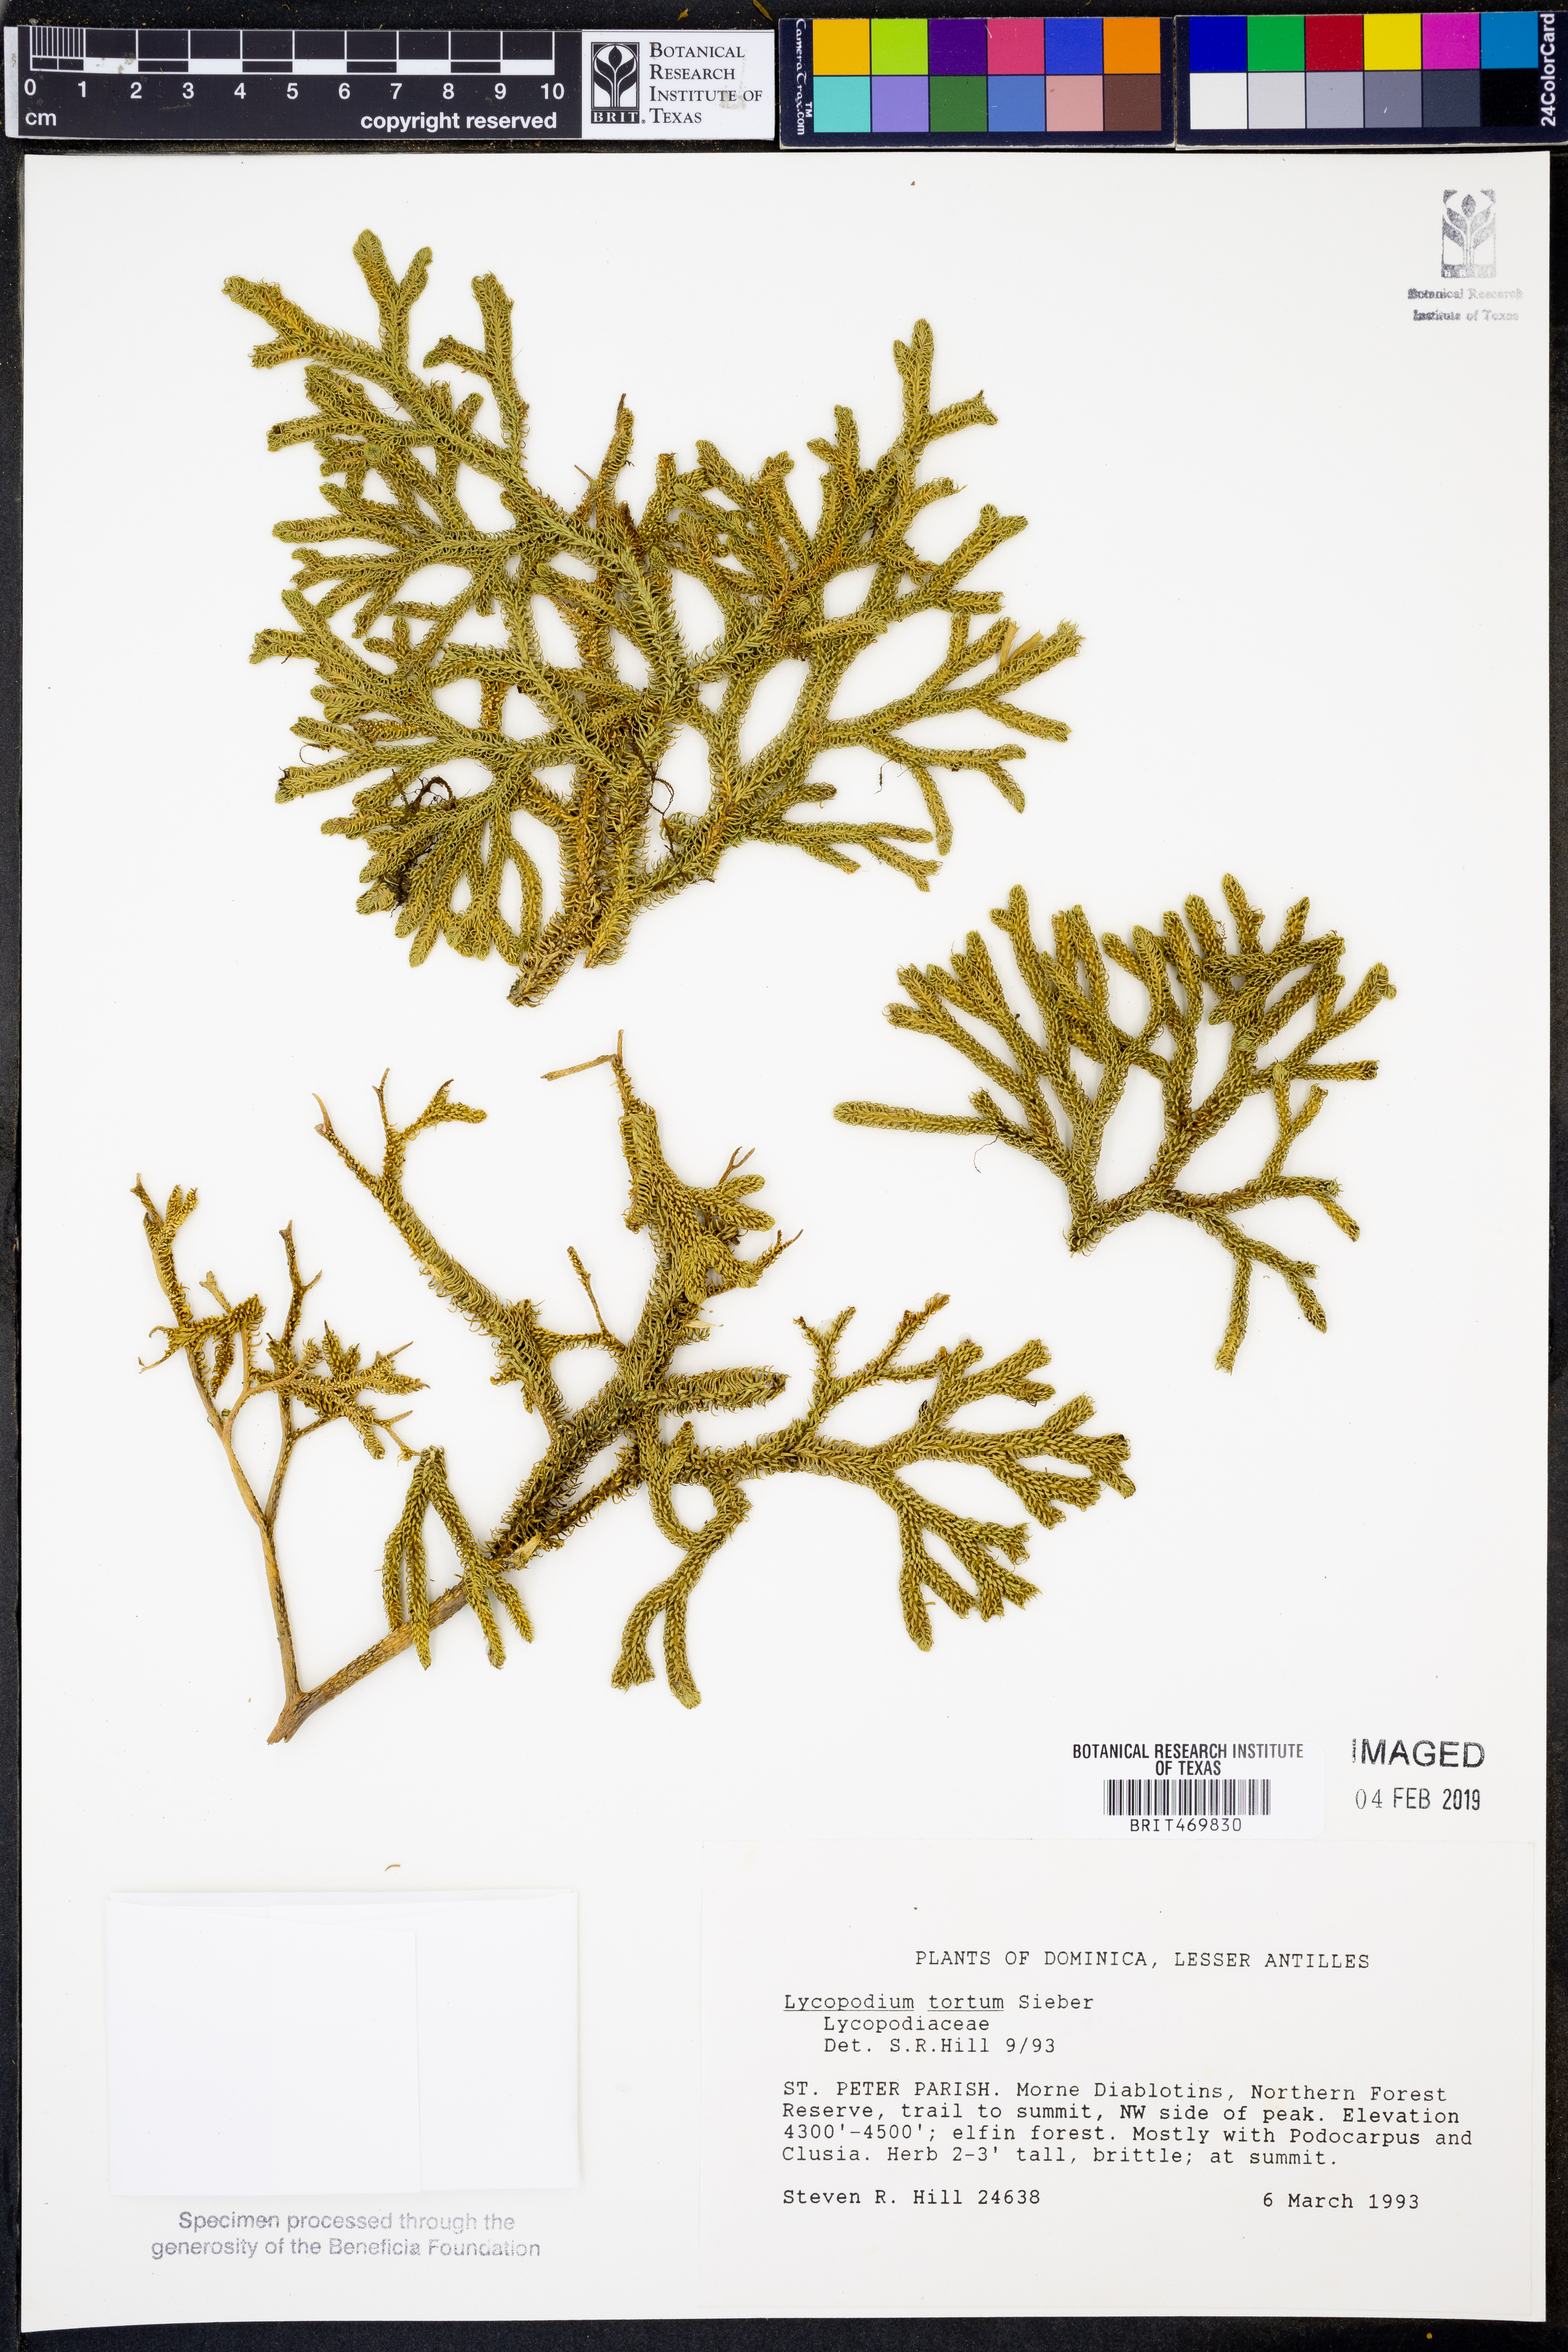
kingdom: Plantae
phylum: Tracheophyta
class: Lycopodiopsida
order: Lycopodiales
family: Lycopodiaceae
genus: Palhinhaea
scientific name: Palhinhaea torta
